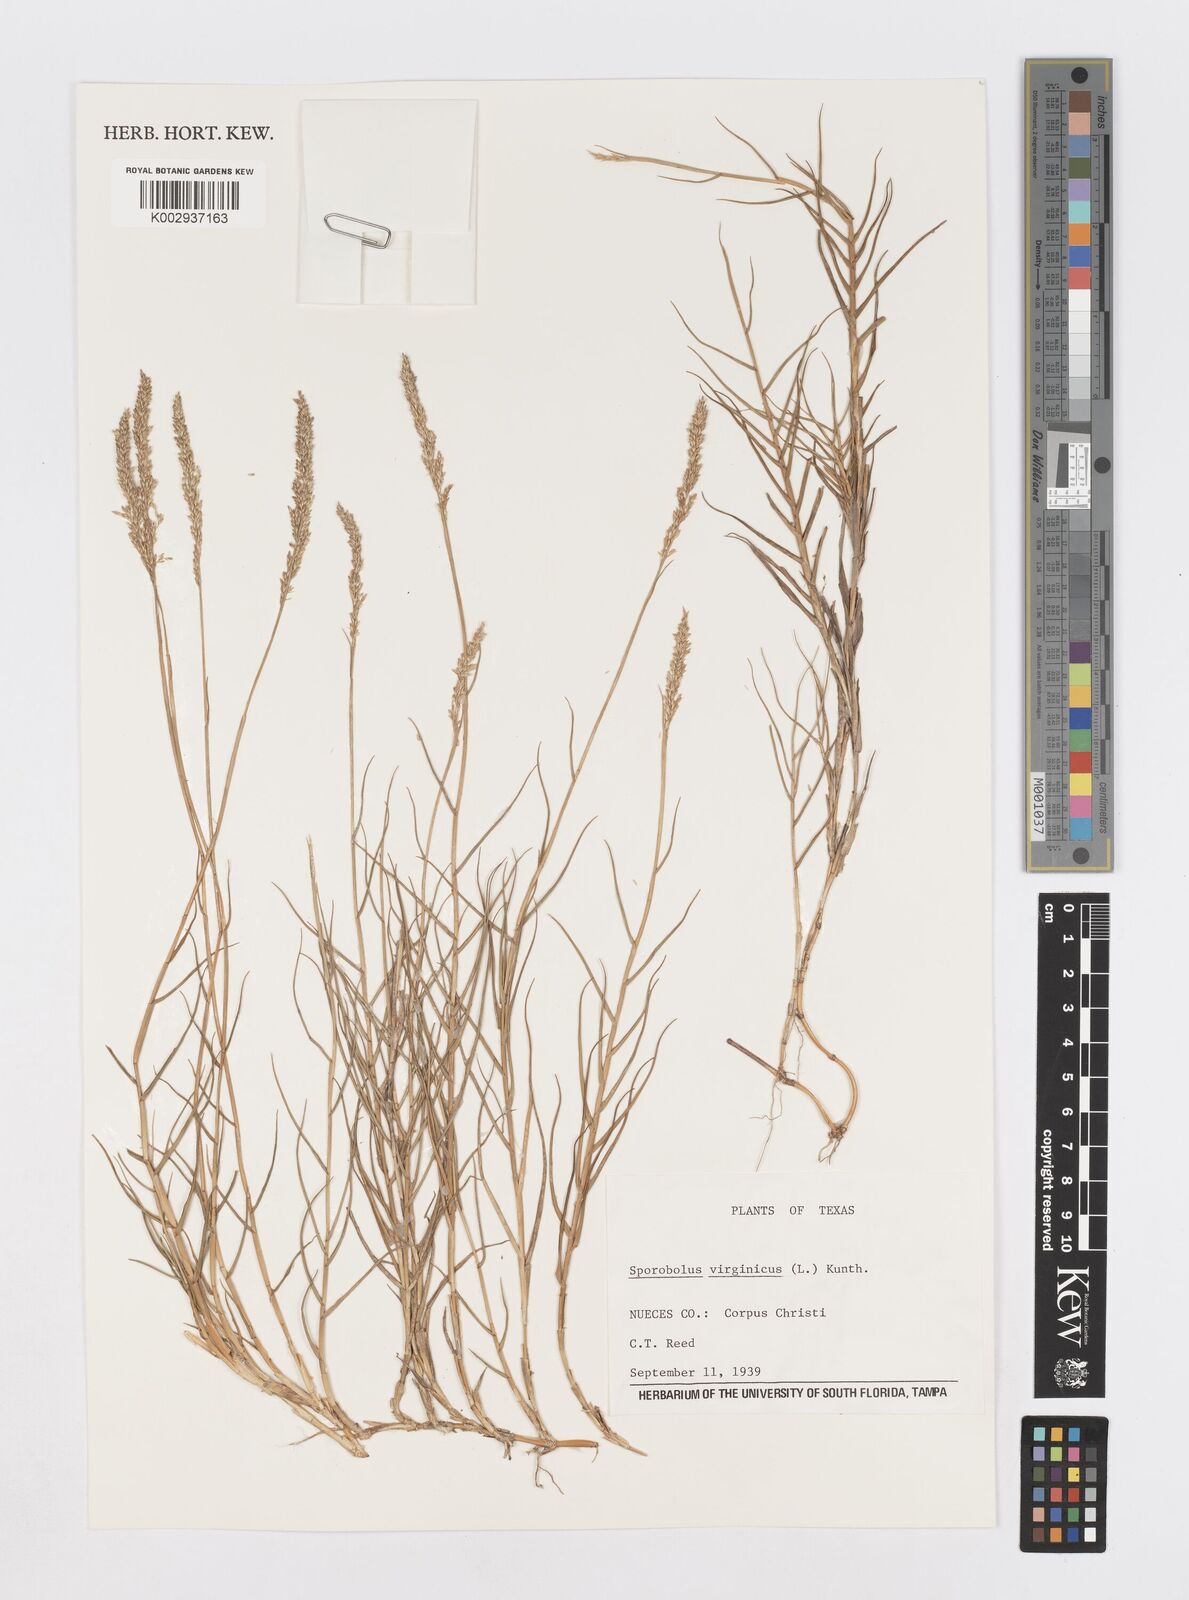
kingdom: Plantae
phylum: Tracheophyta
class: Liliopsida
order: Poales
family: Poaceae
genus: Sporobolus
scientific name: Sporobolus virginicus
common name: Beach dropseed
